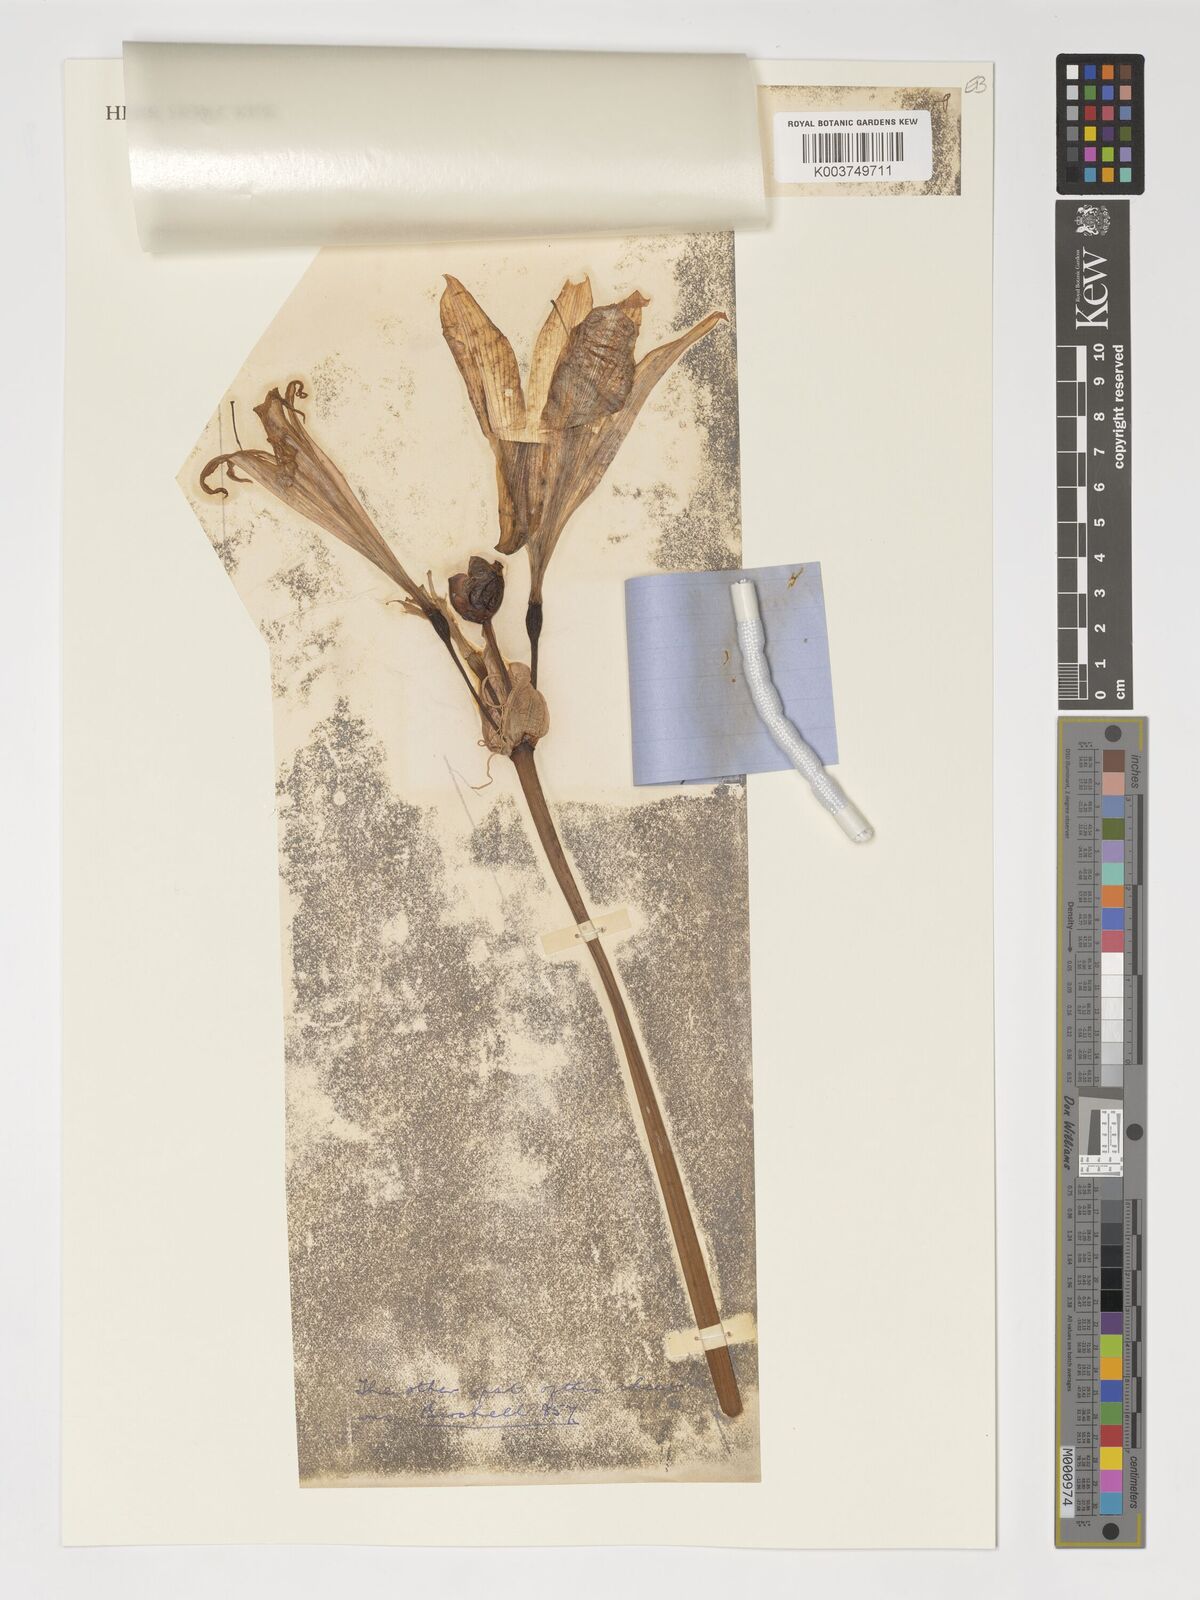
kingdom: Plantae
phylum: Tracheophyta
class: Liliopsida
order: Asparagales
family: Amaryllidaceae
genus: Amaryllis
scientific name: Amaryllis belladonna
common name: Jersey lily
